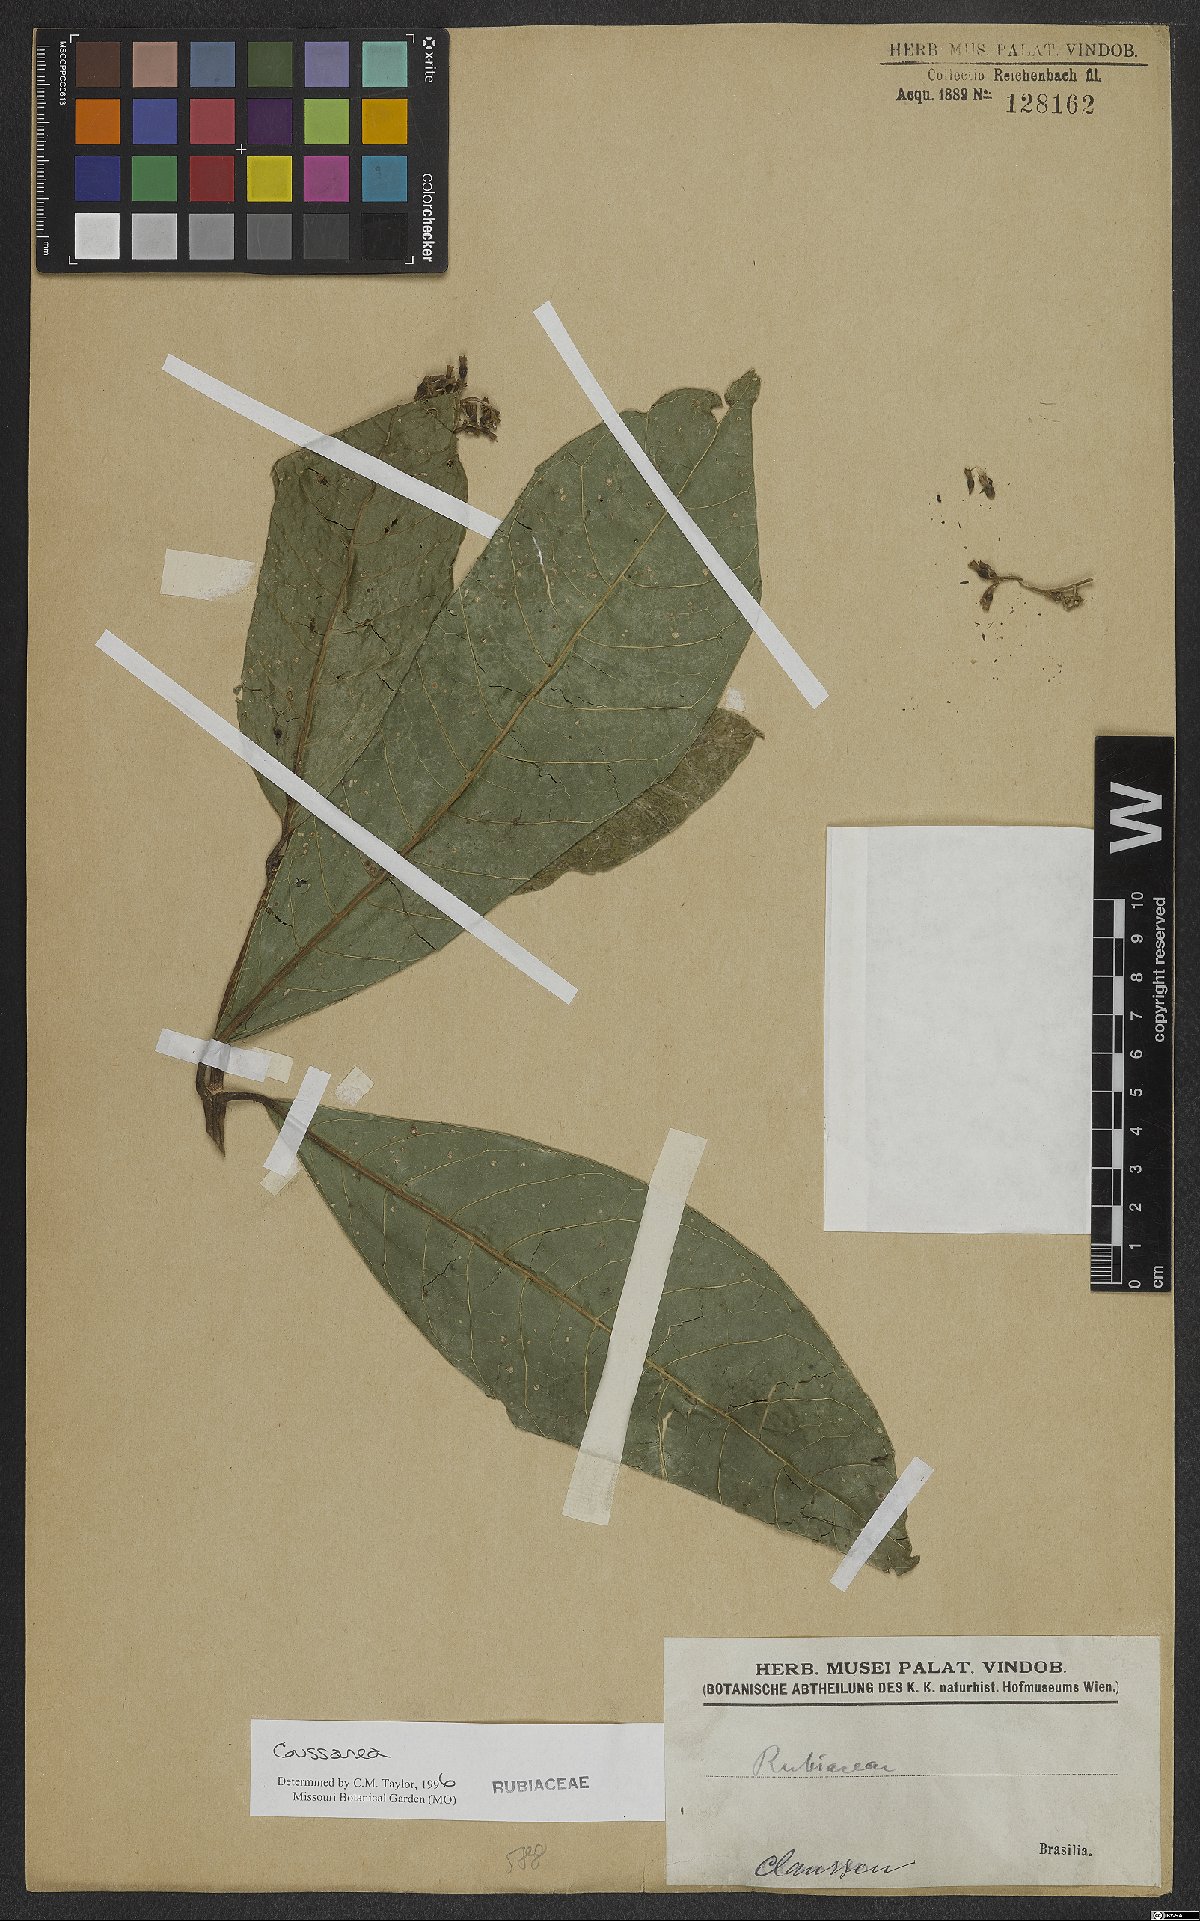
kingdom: Plantae
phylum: Tracheophyta
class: Magnoliopsida
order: Gentianales
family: Rubiaceae
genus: Coussarea
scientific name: Coussarea
